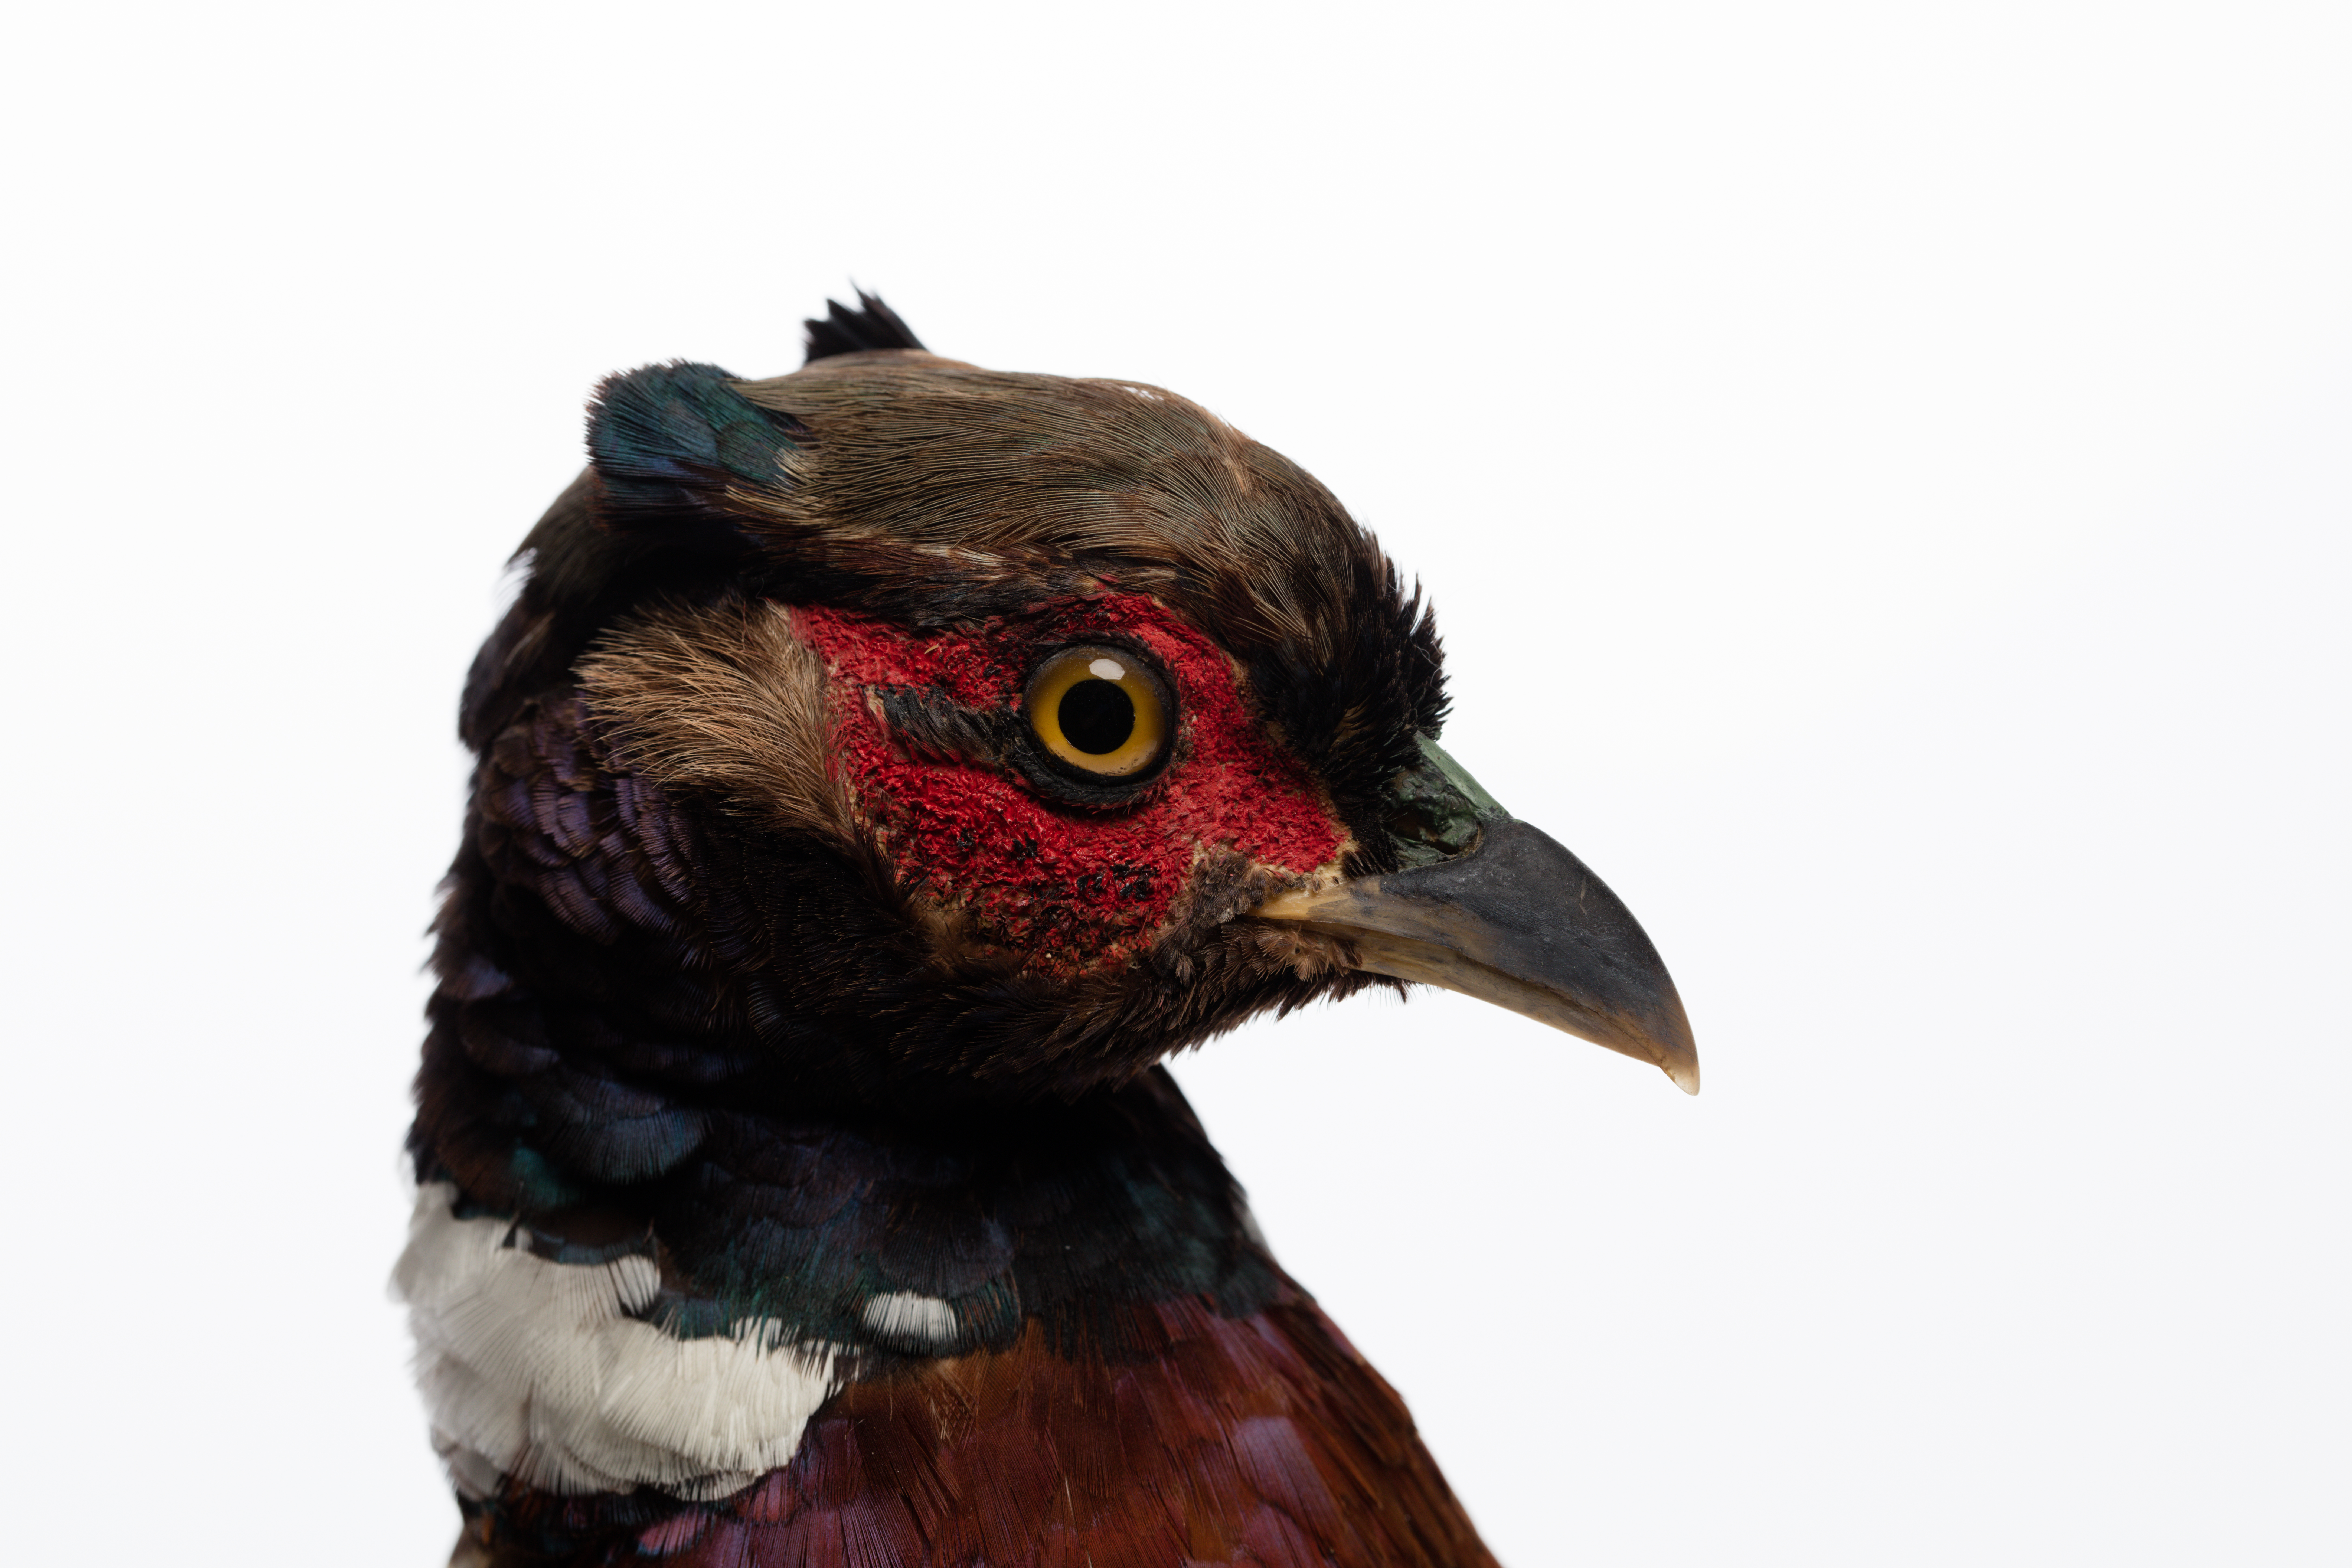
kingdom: Animalia
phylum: Chordata
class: Aves
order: Galliformes
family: Phasianidae
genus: Phasianus
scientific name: Phasianus colchicus
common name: Common pheasant
